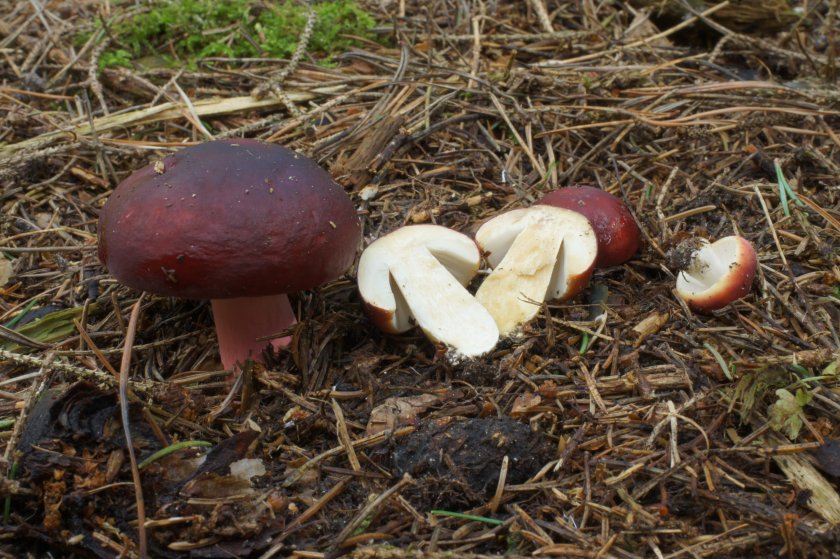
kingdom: Fungi
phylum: Basidiomycota
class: Agaricomycetes
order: Russulales
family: Russulaceae
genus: Russula
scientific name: Russula queletii
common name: Quélets skørhat
